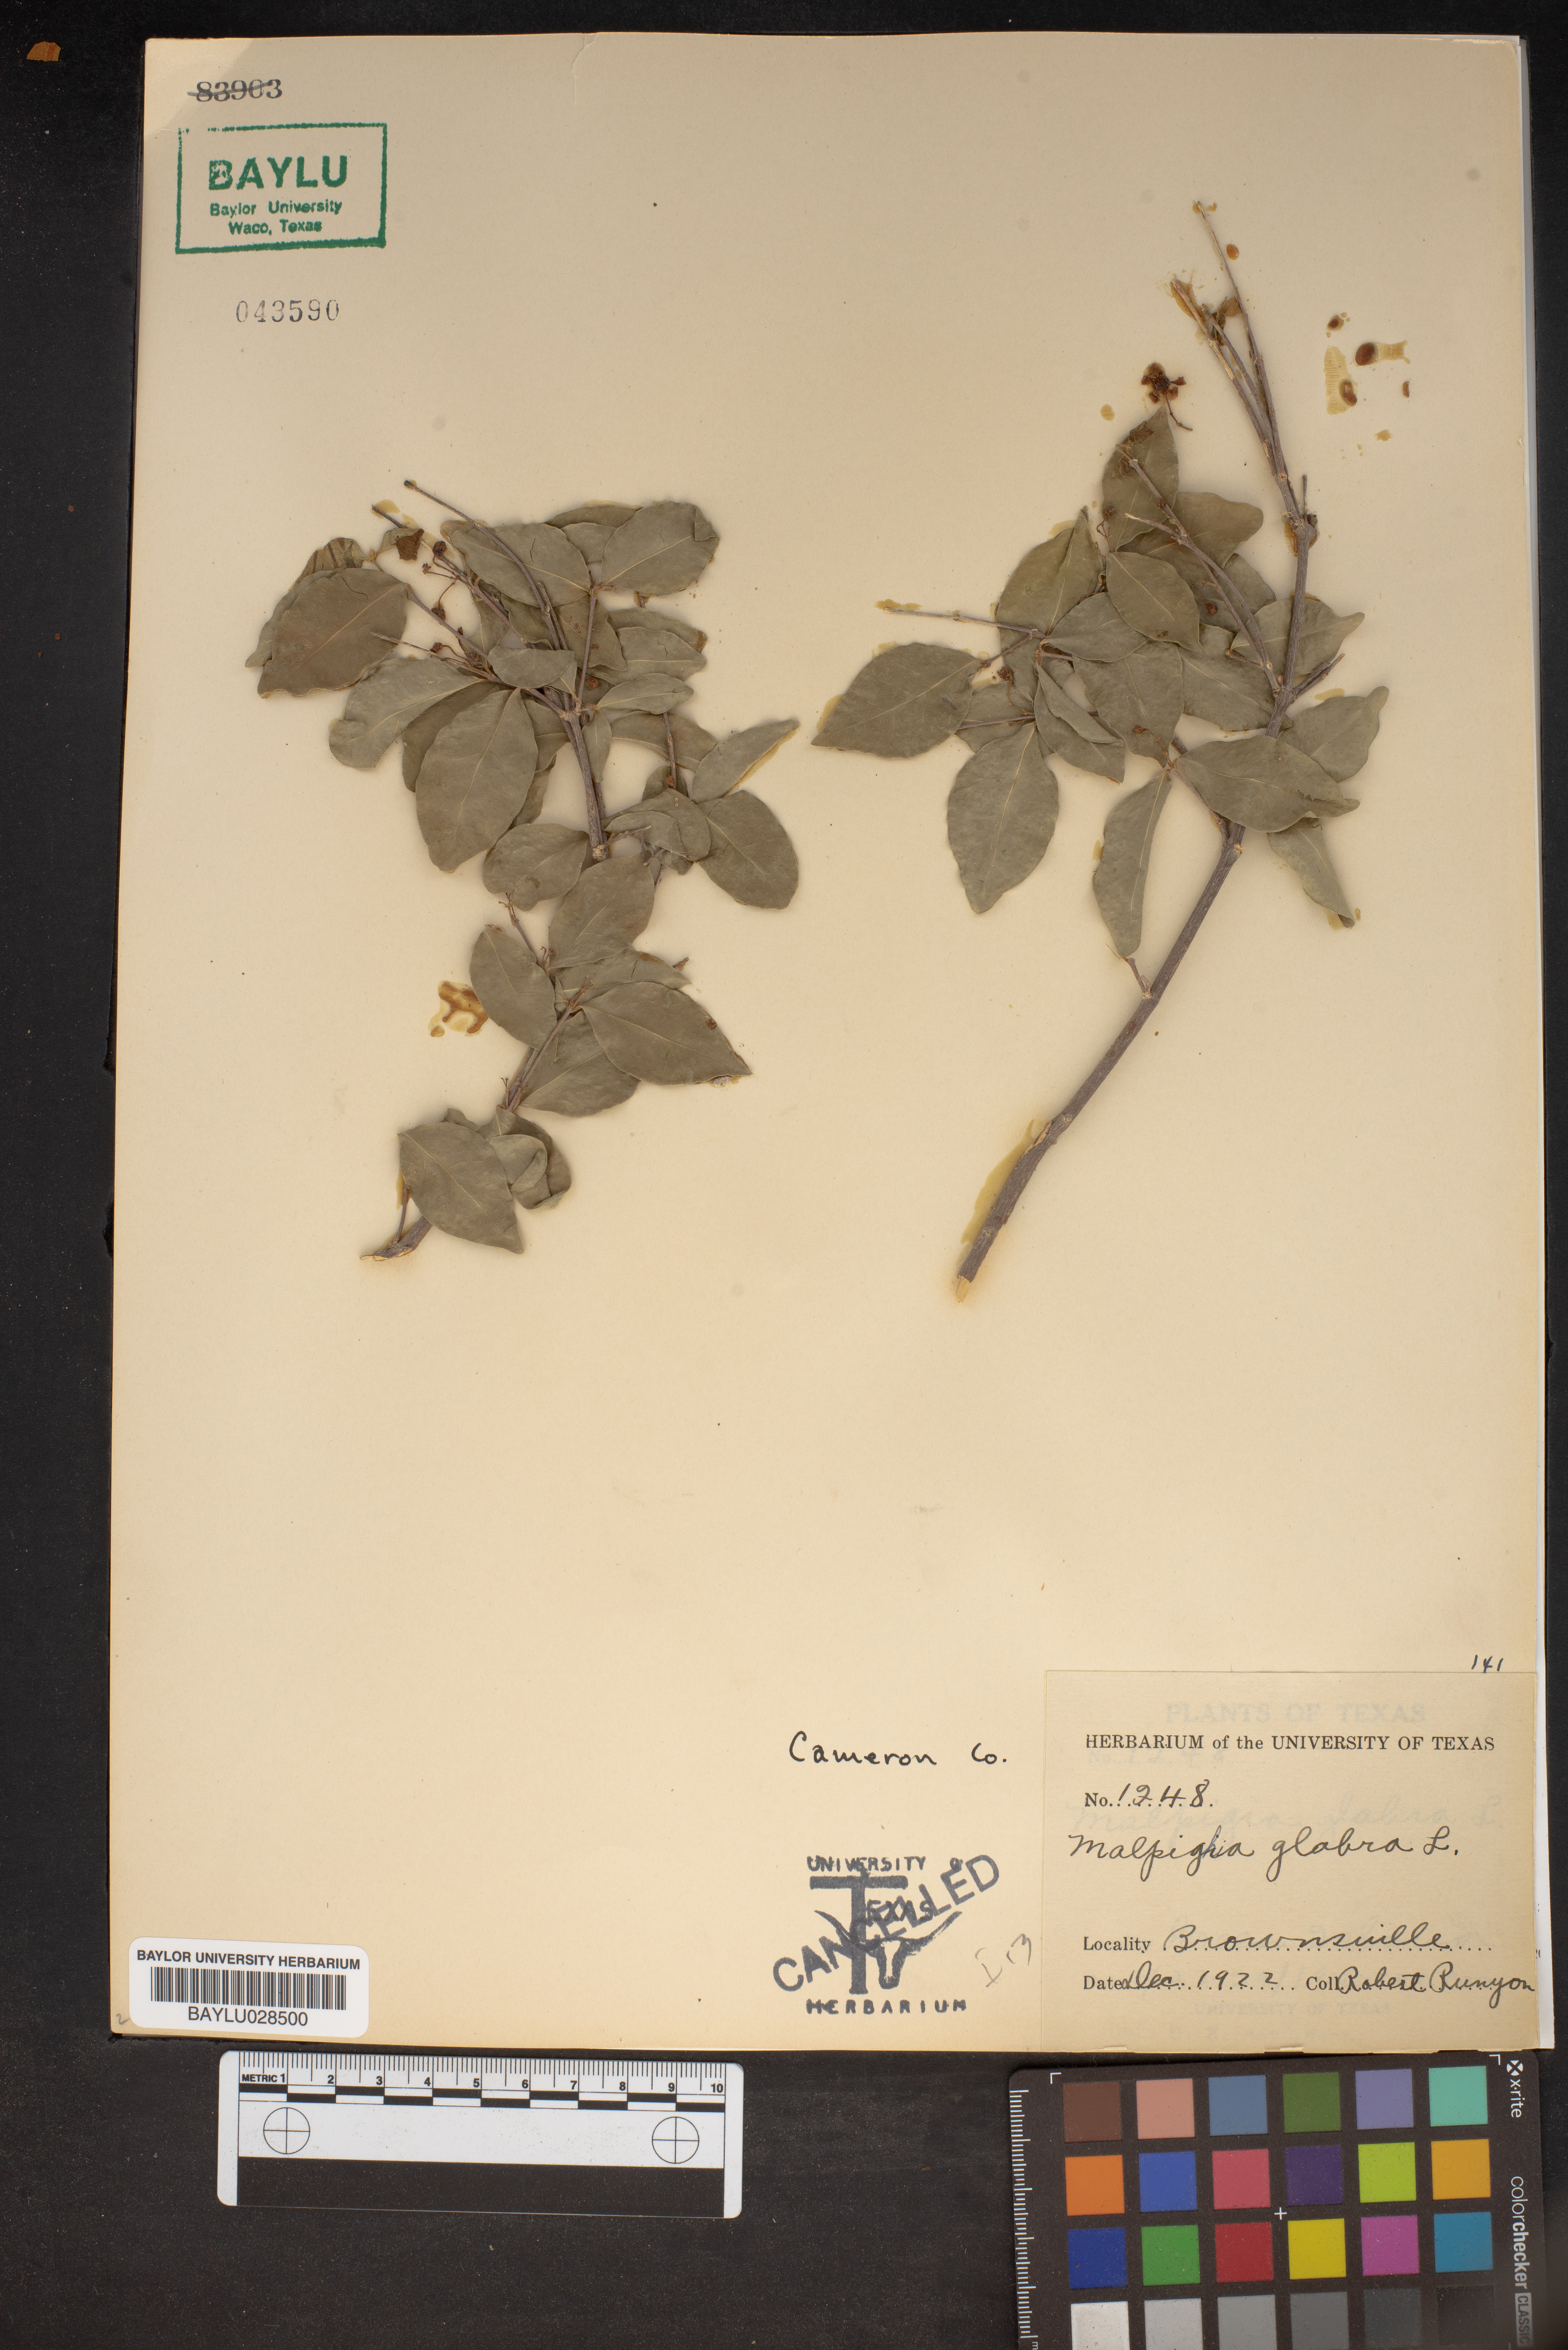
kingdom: Plantae
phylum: Tracheophyta
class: Magnoliopsida
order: Malpighiales
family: Malpighiaceae
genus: Malpighia
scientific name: Malpighia glabra
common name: Barbados cherry
